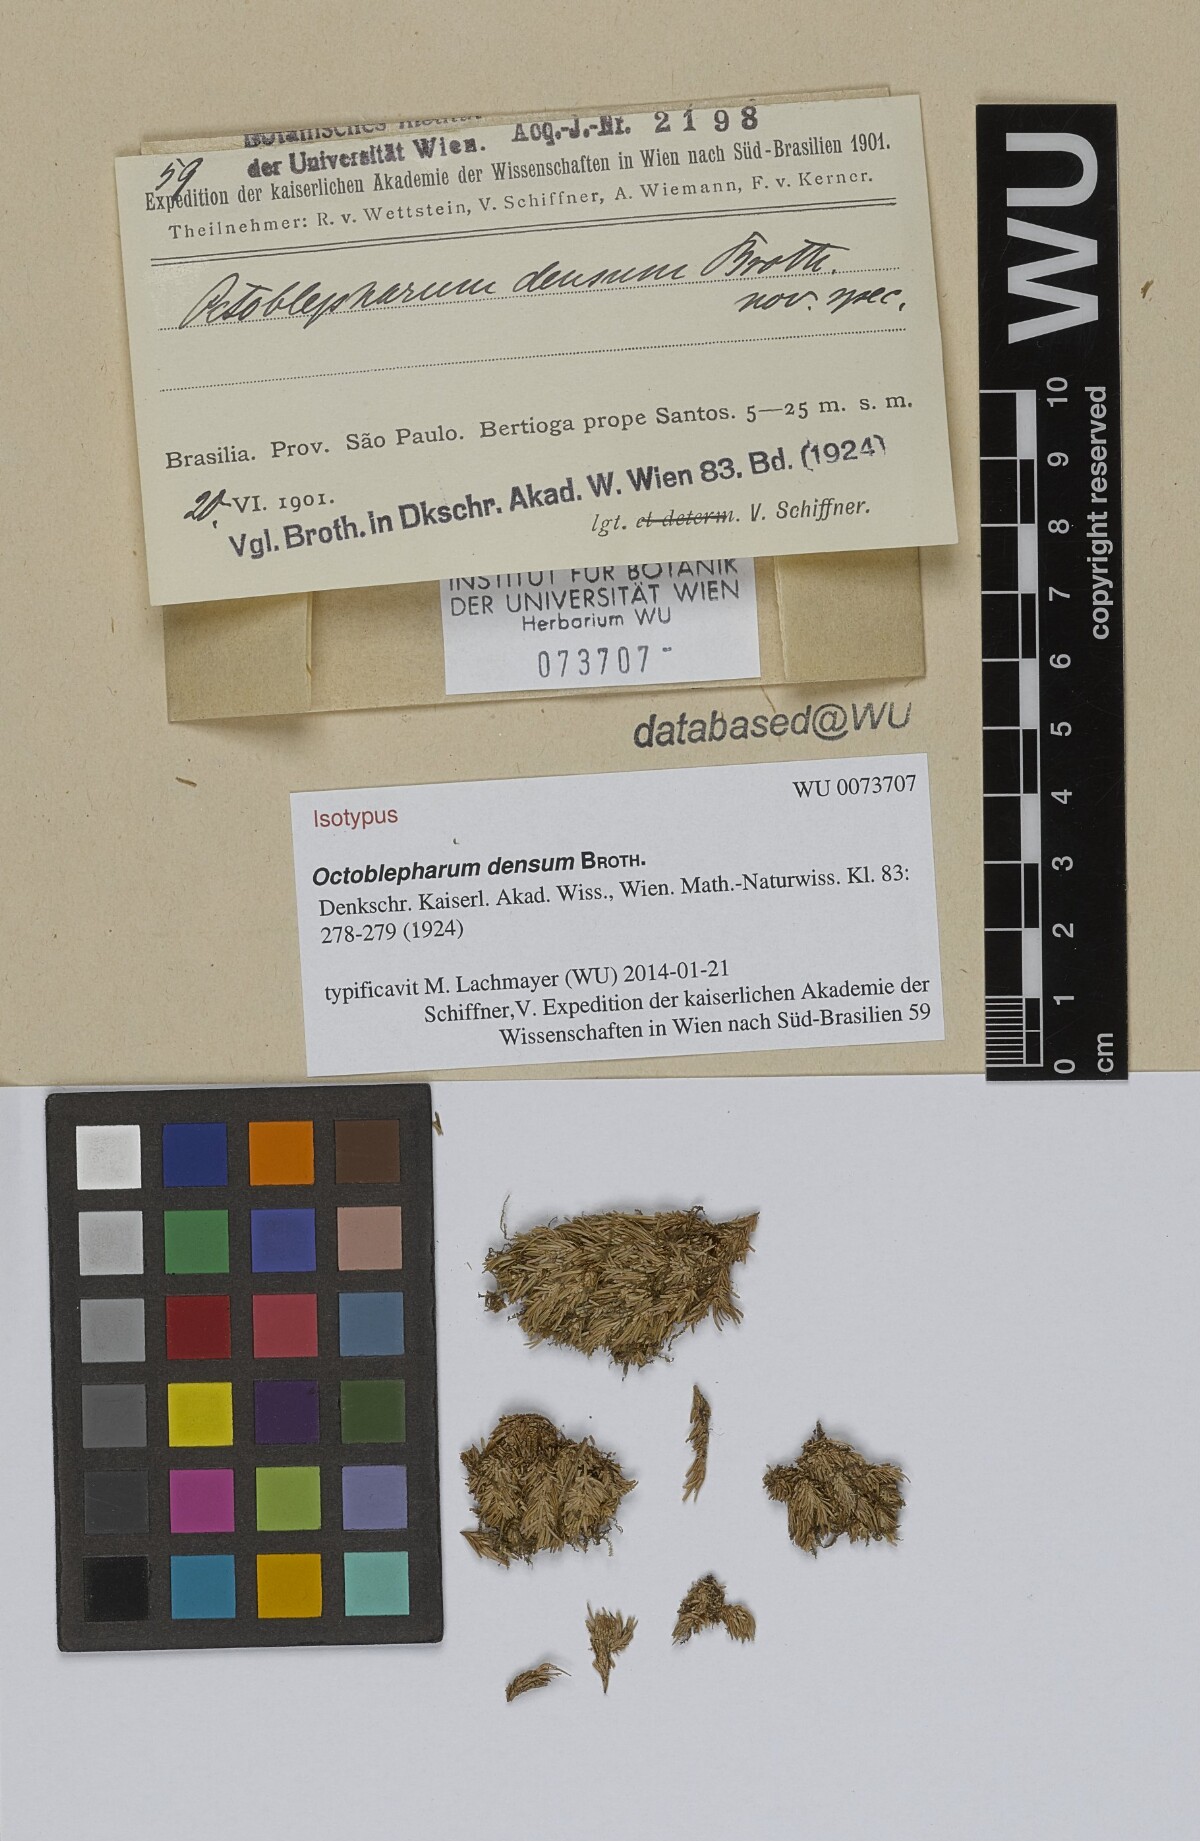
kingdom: Plantae
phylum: Bryophyta
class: Bryopsida
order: Dicranales
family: Octoblepharaceae
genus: Octoblepharum
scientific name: Octoblepharum pulvinatum
